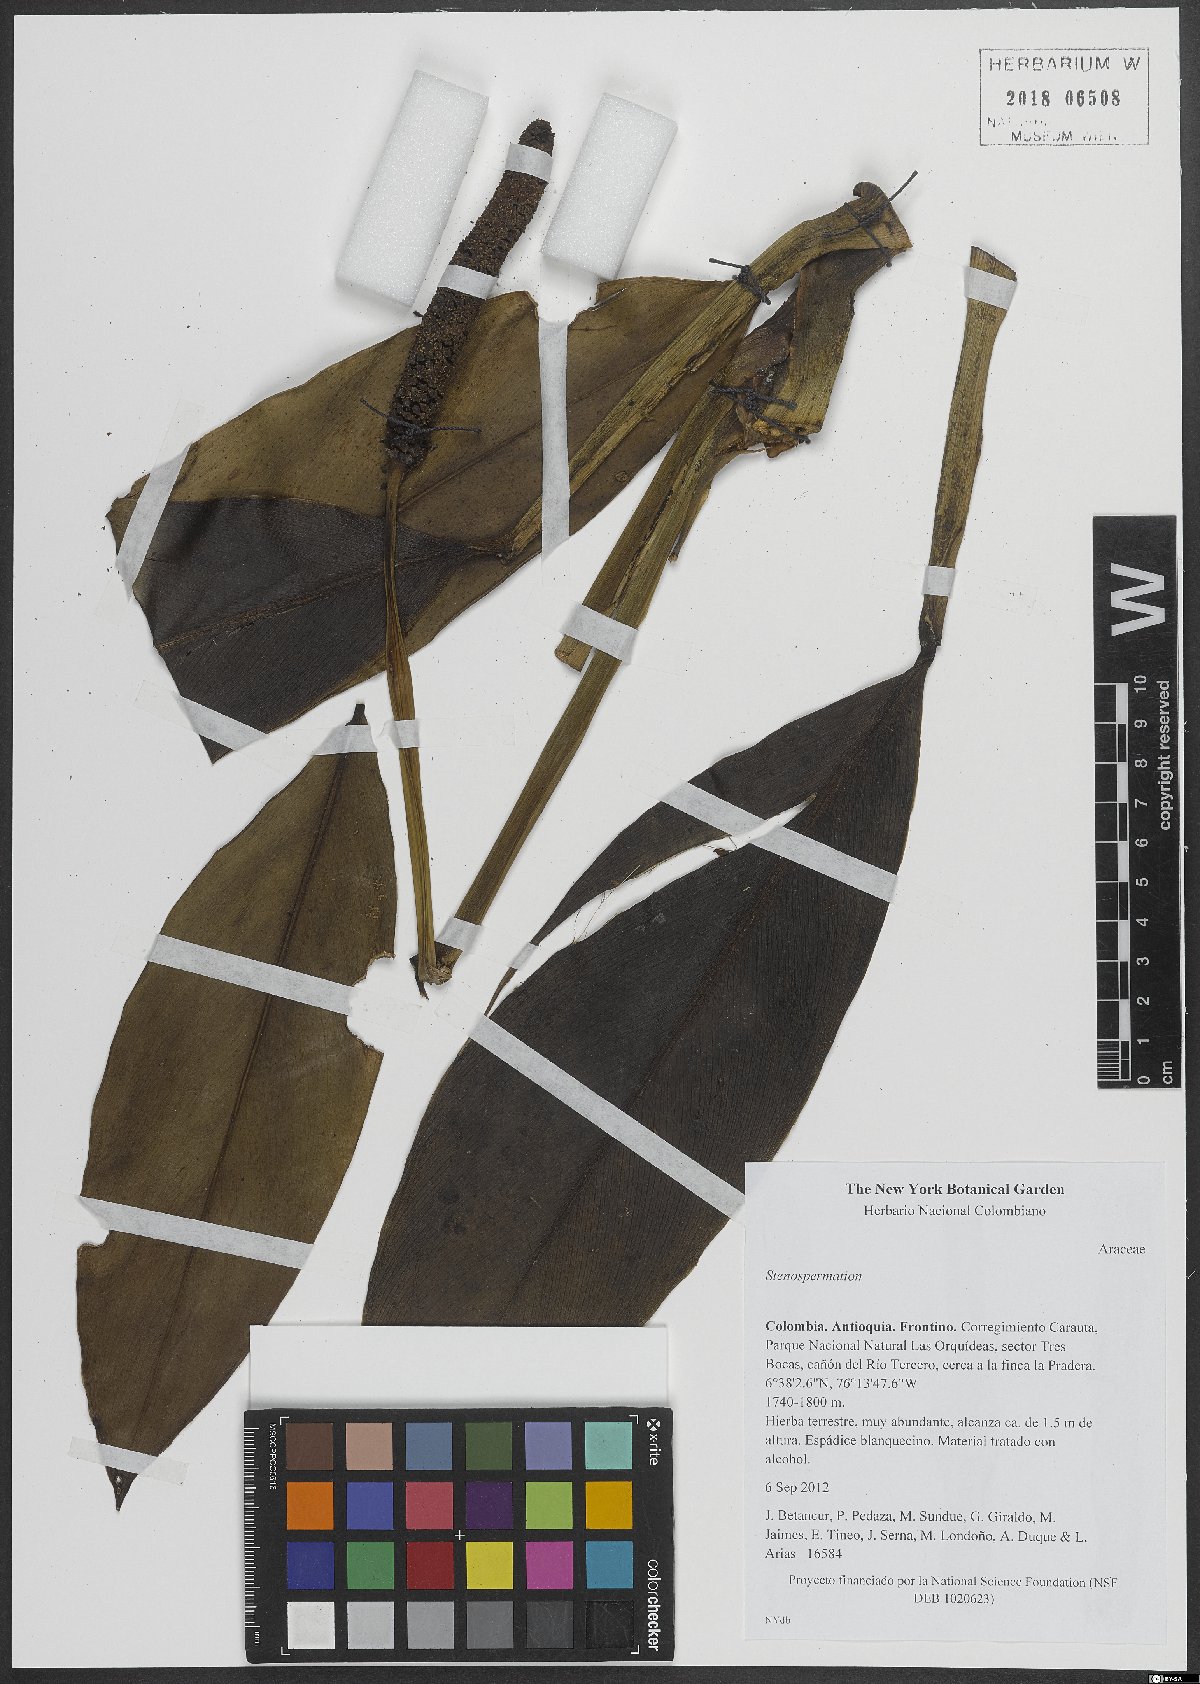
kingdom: Plantae
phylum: Tracheophyta
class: Liliopsida
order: Alismatales
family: Araceae
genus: Stenospermation
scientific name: Stenospermation
